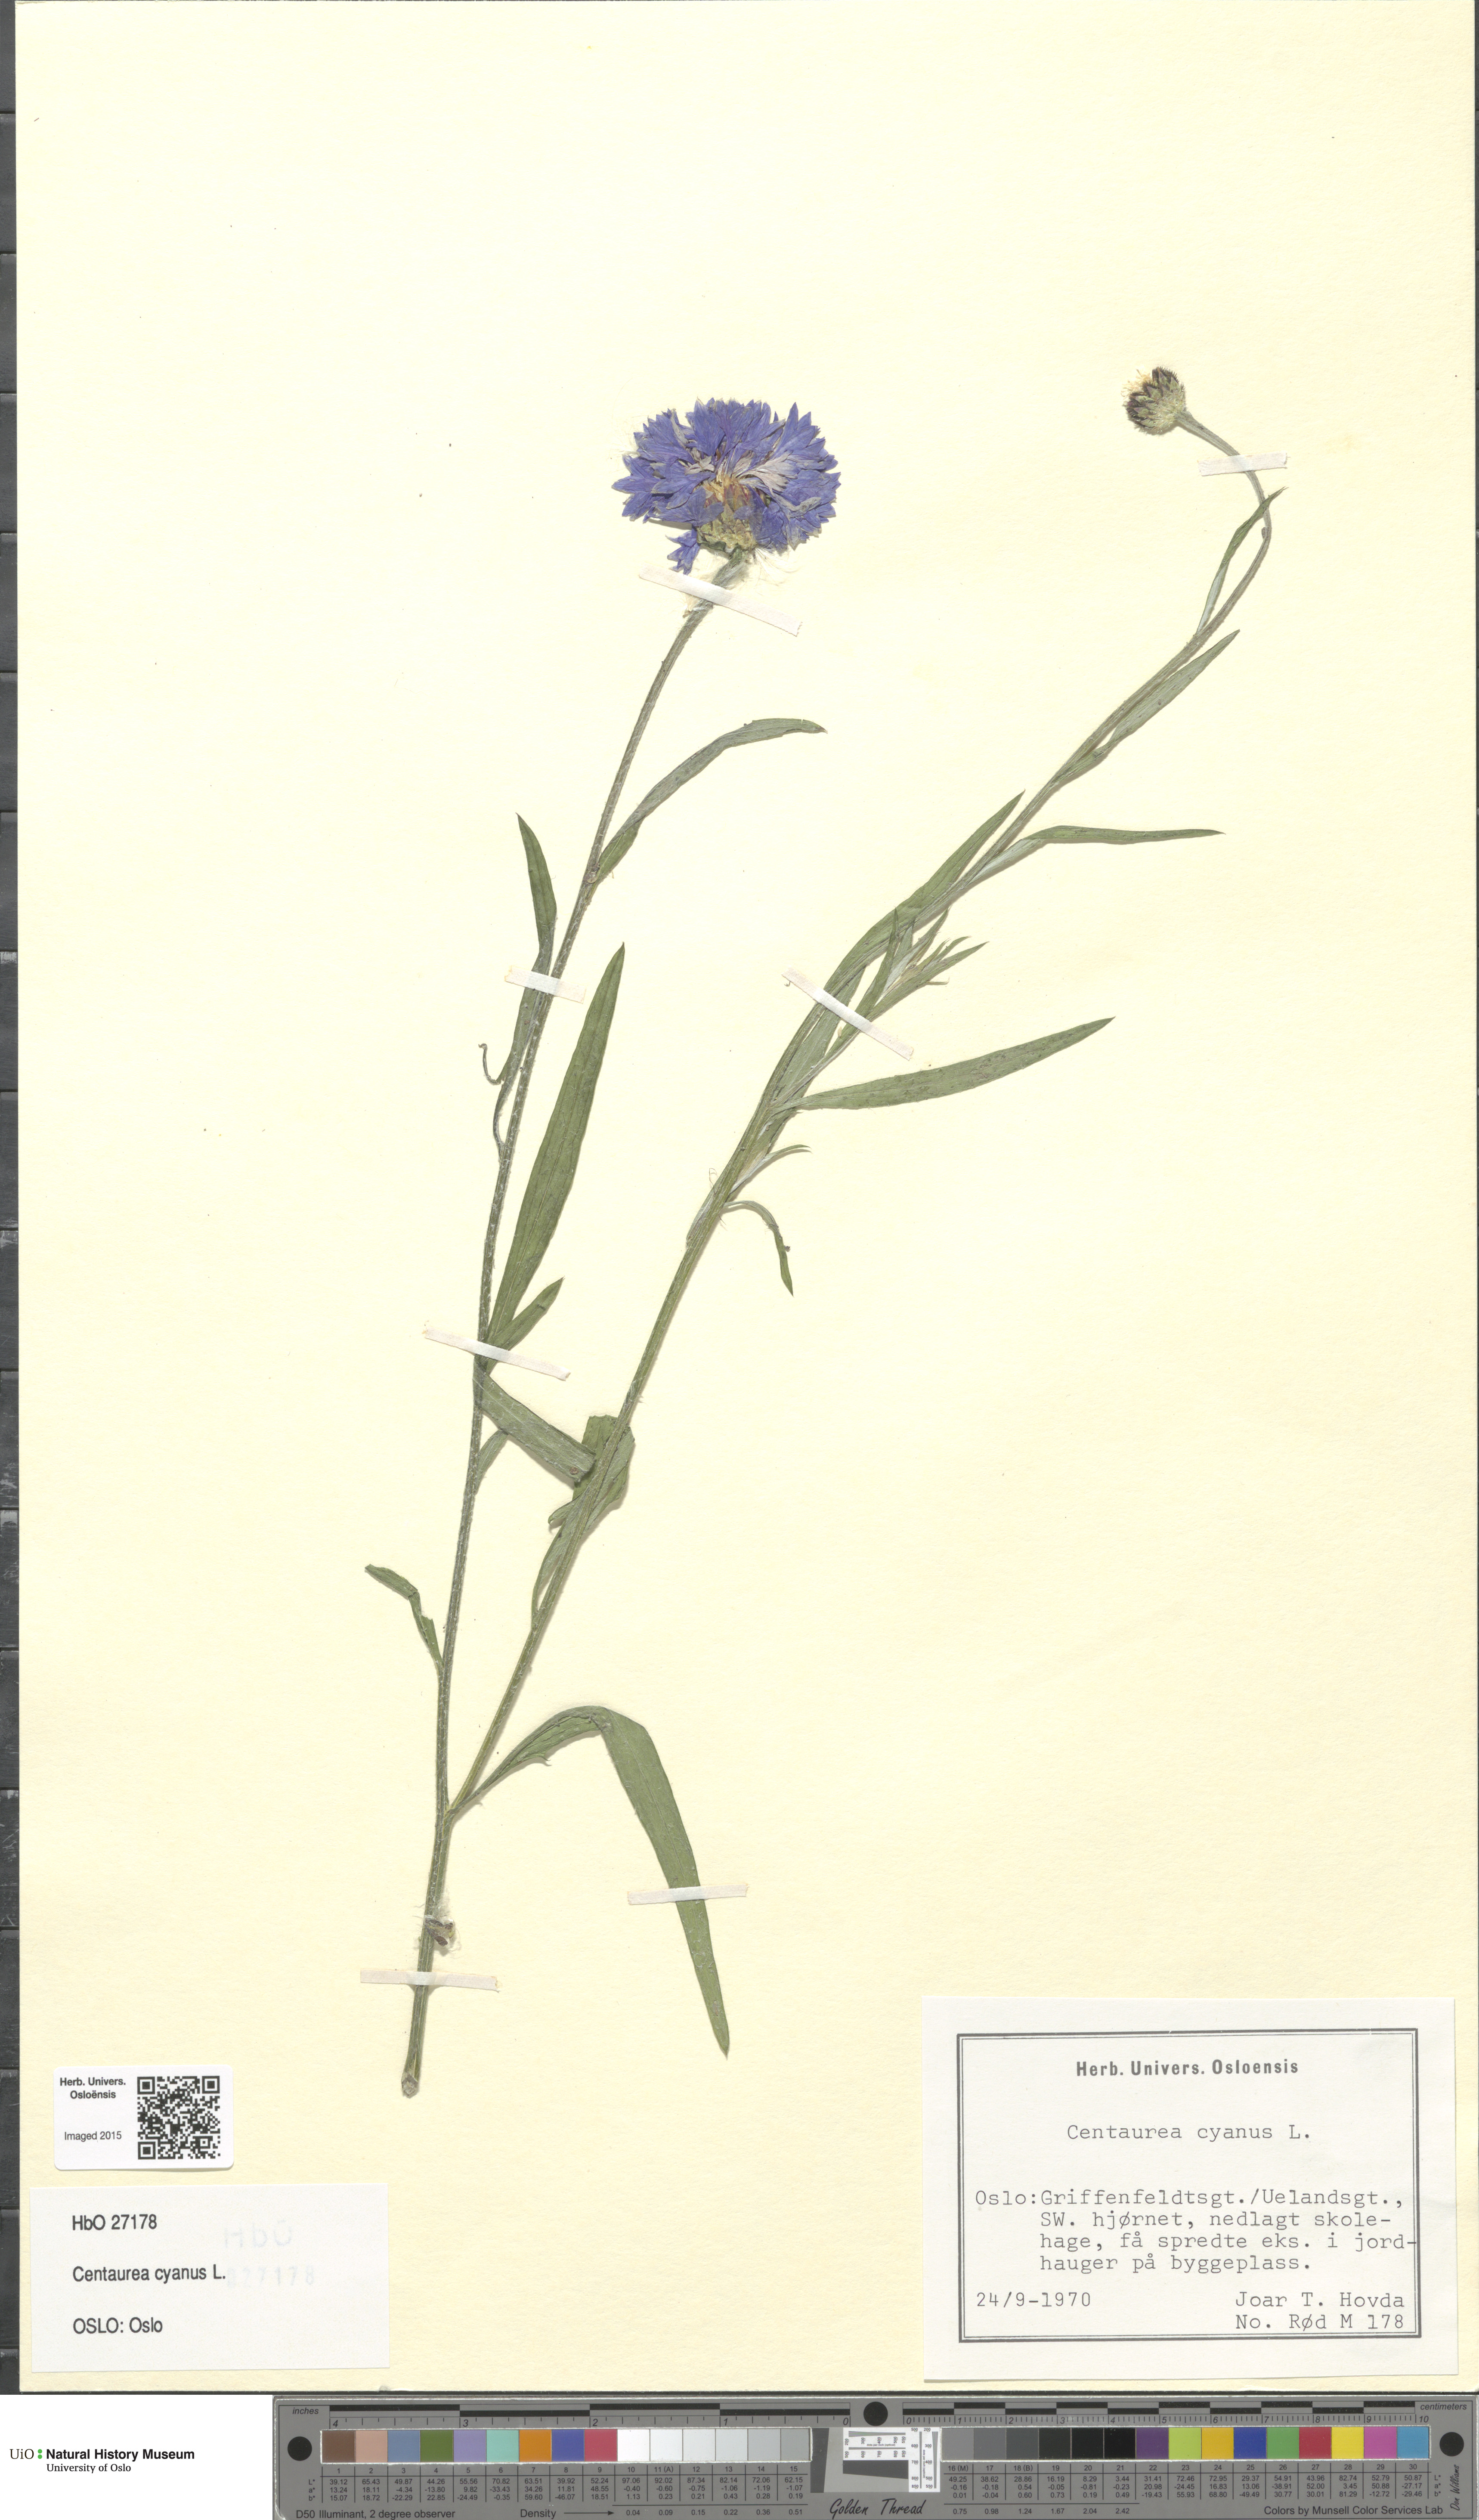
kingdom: Plantae
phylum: Tracheophyta
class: Magnoliopsida
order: Asterales
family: Asteraceae
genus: Centaurea
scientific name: Centaurea cyanus
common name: Cornflower
